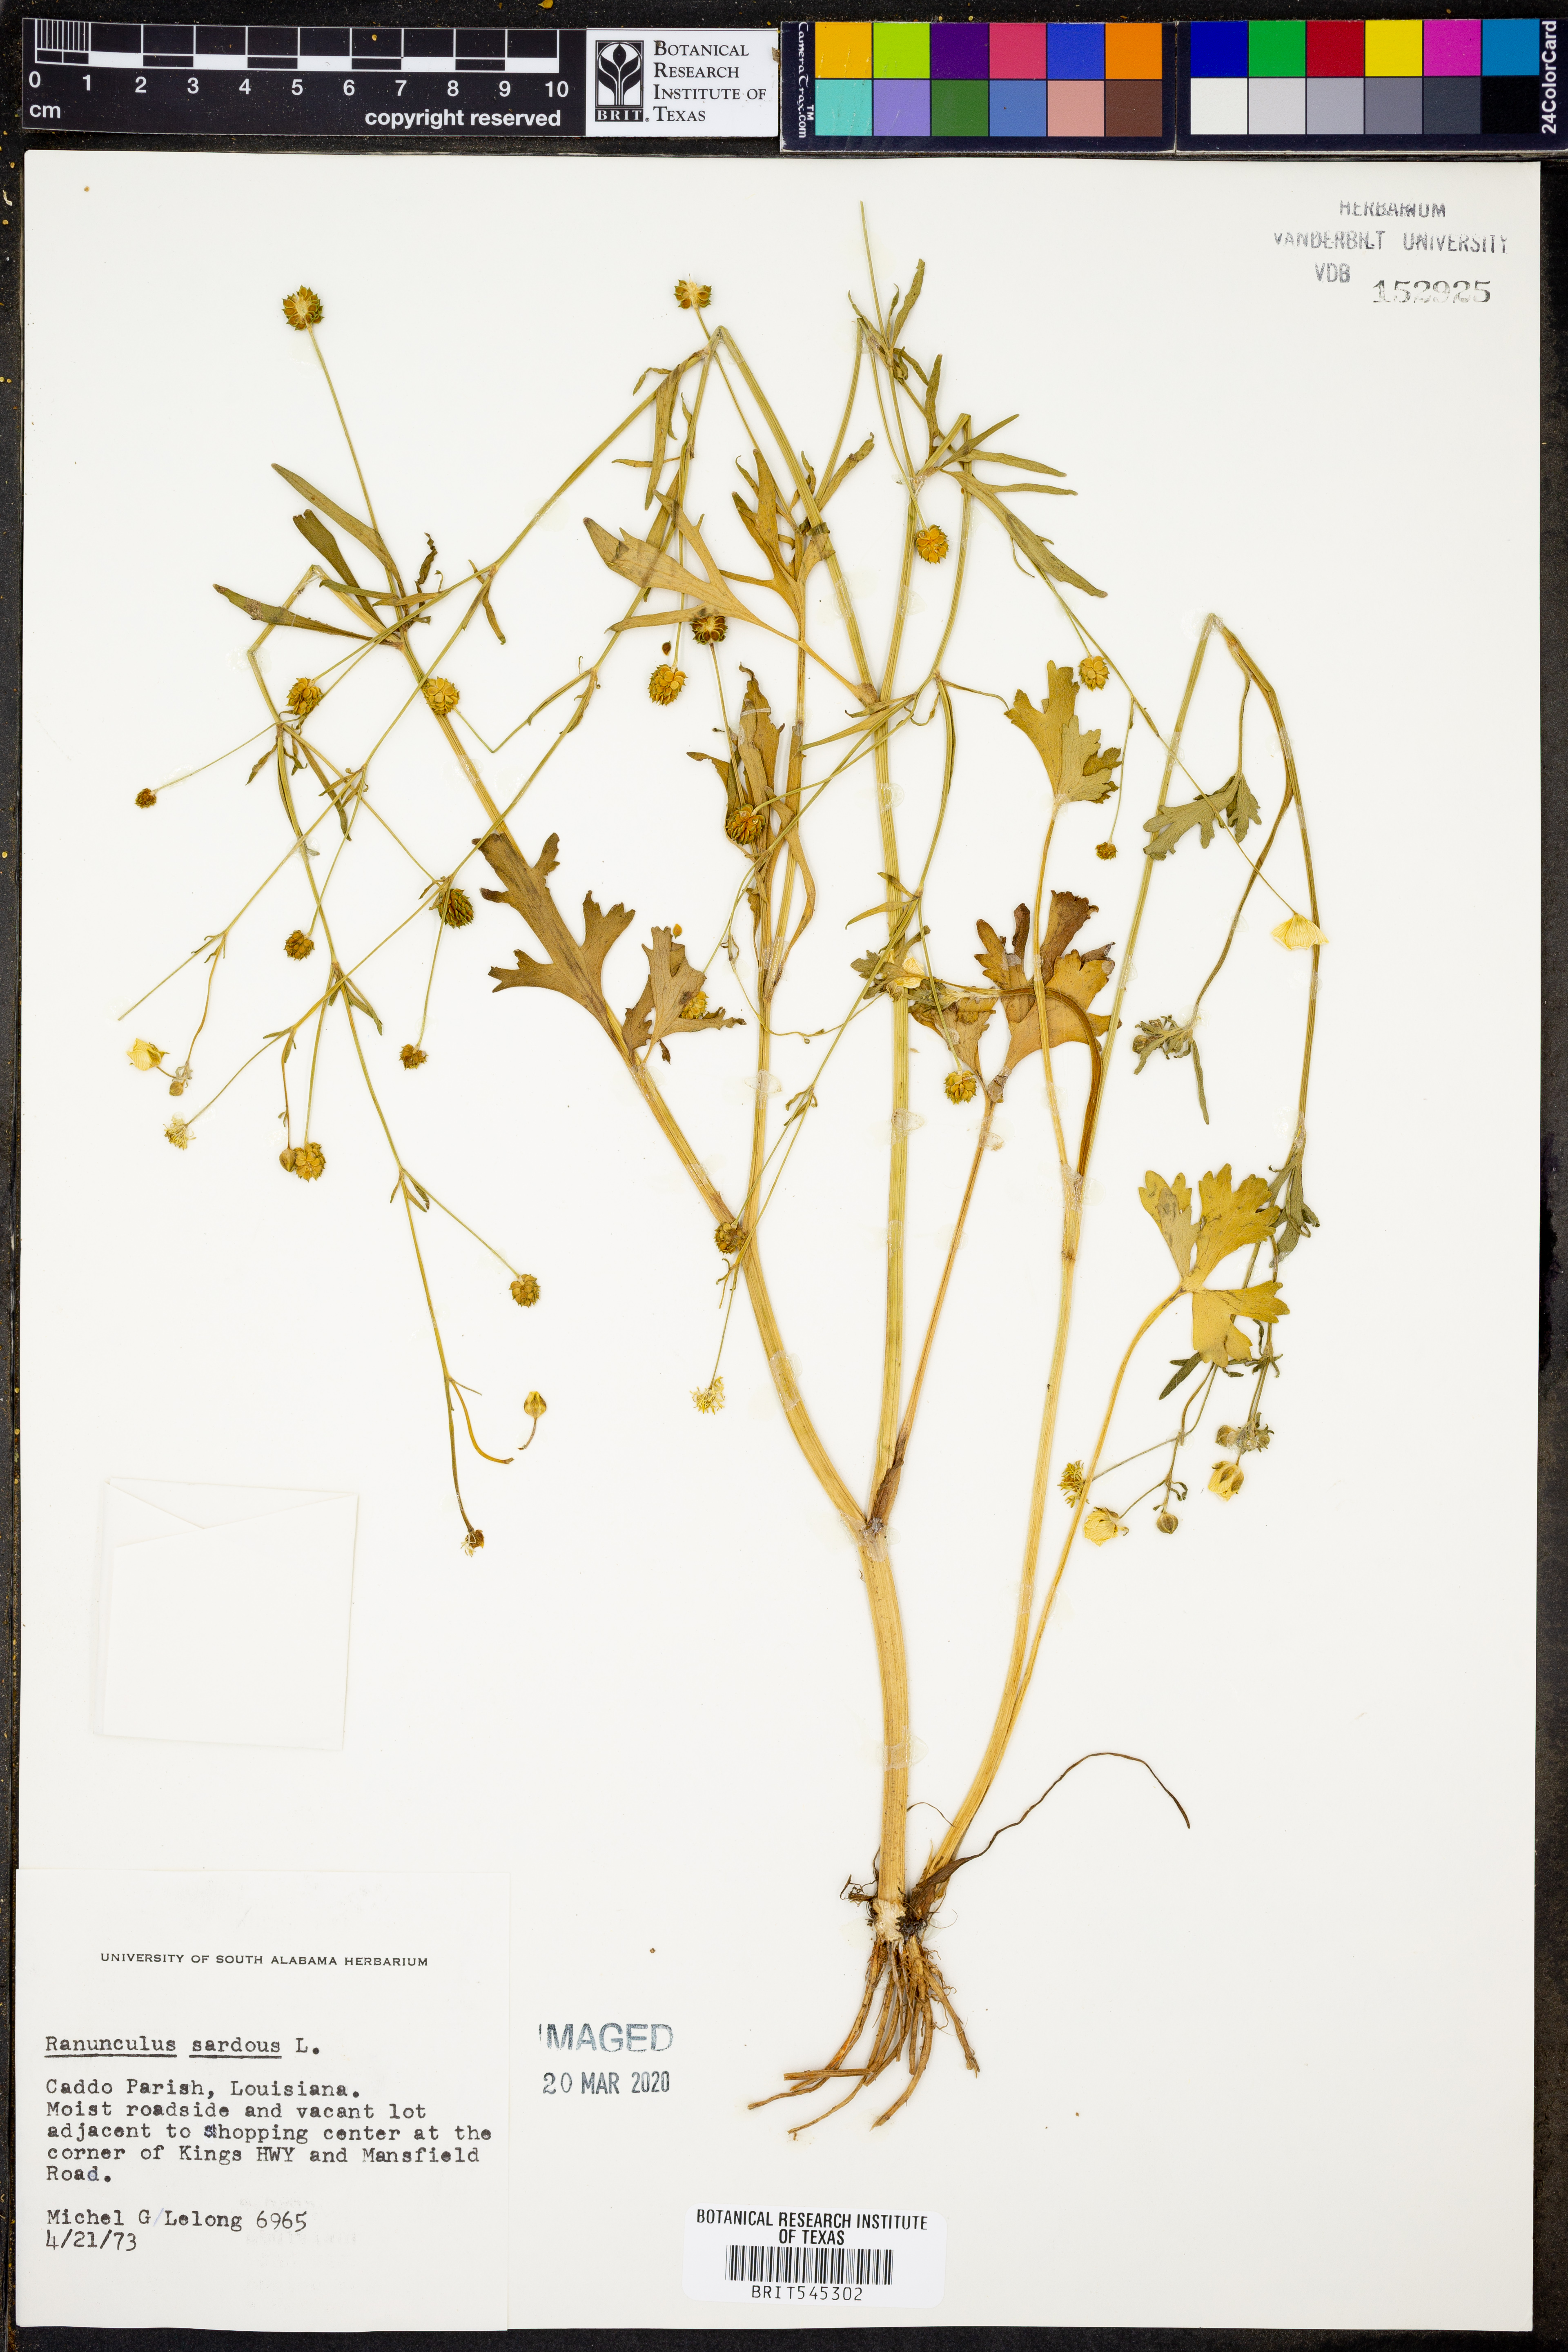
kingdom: Plantae
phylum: Tracheophyta
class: Magnoliopsida
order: Ranunculales
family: Ranunculaceae
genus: Ranunculus
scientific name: Ranunculus sardous
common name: Hairy buttercup
